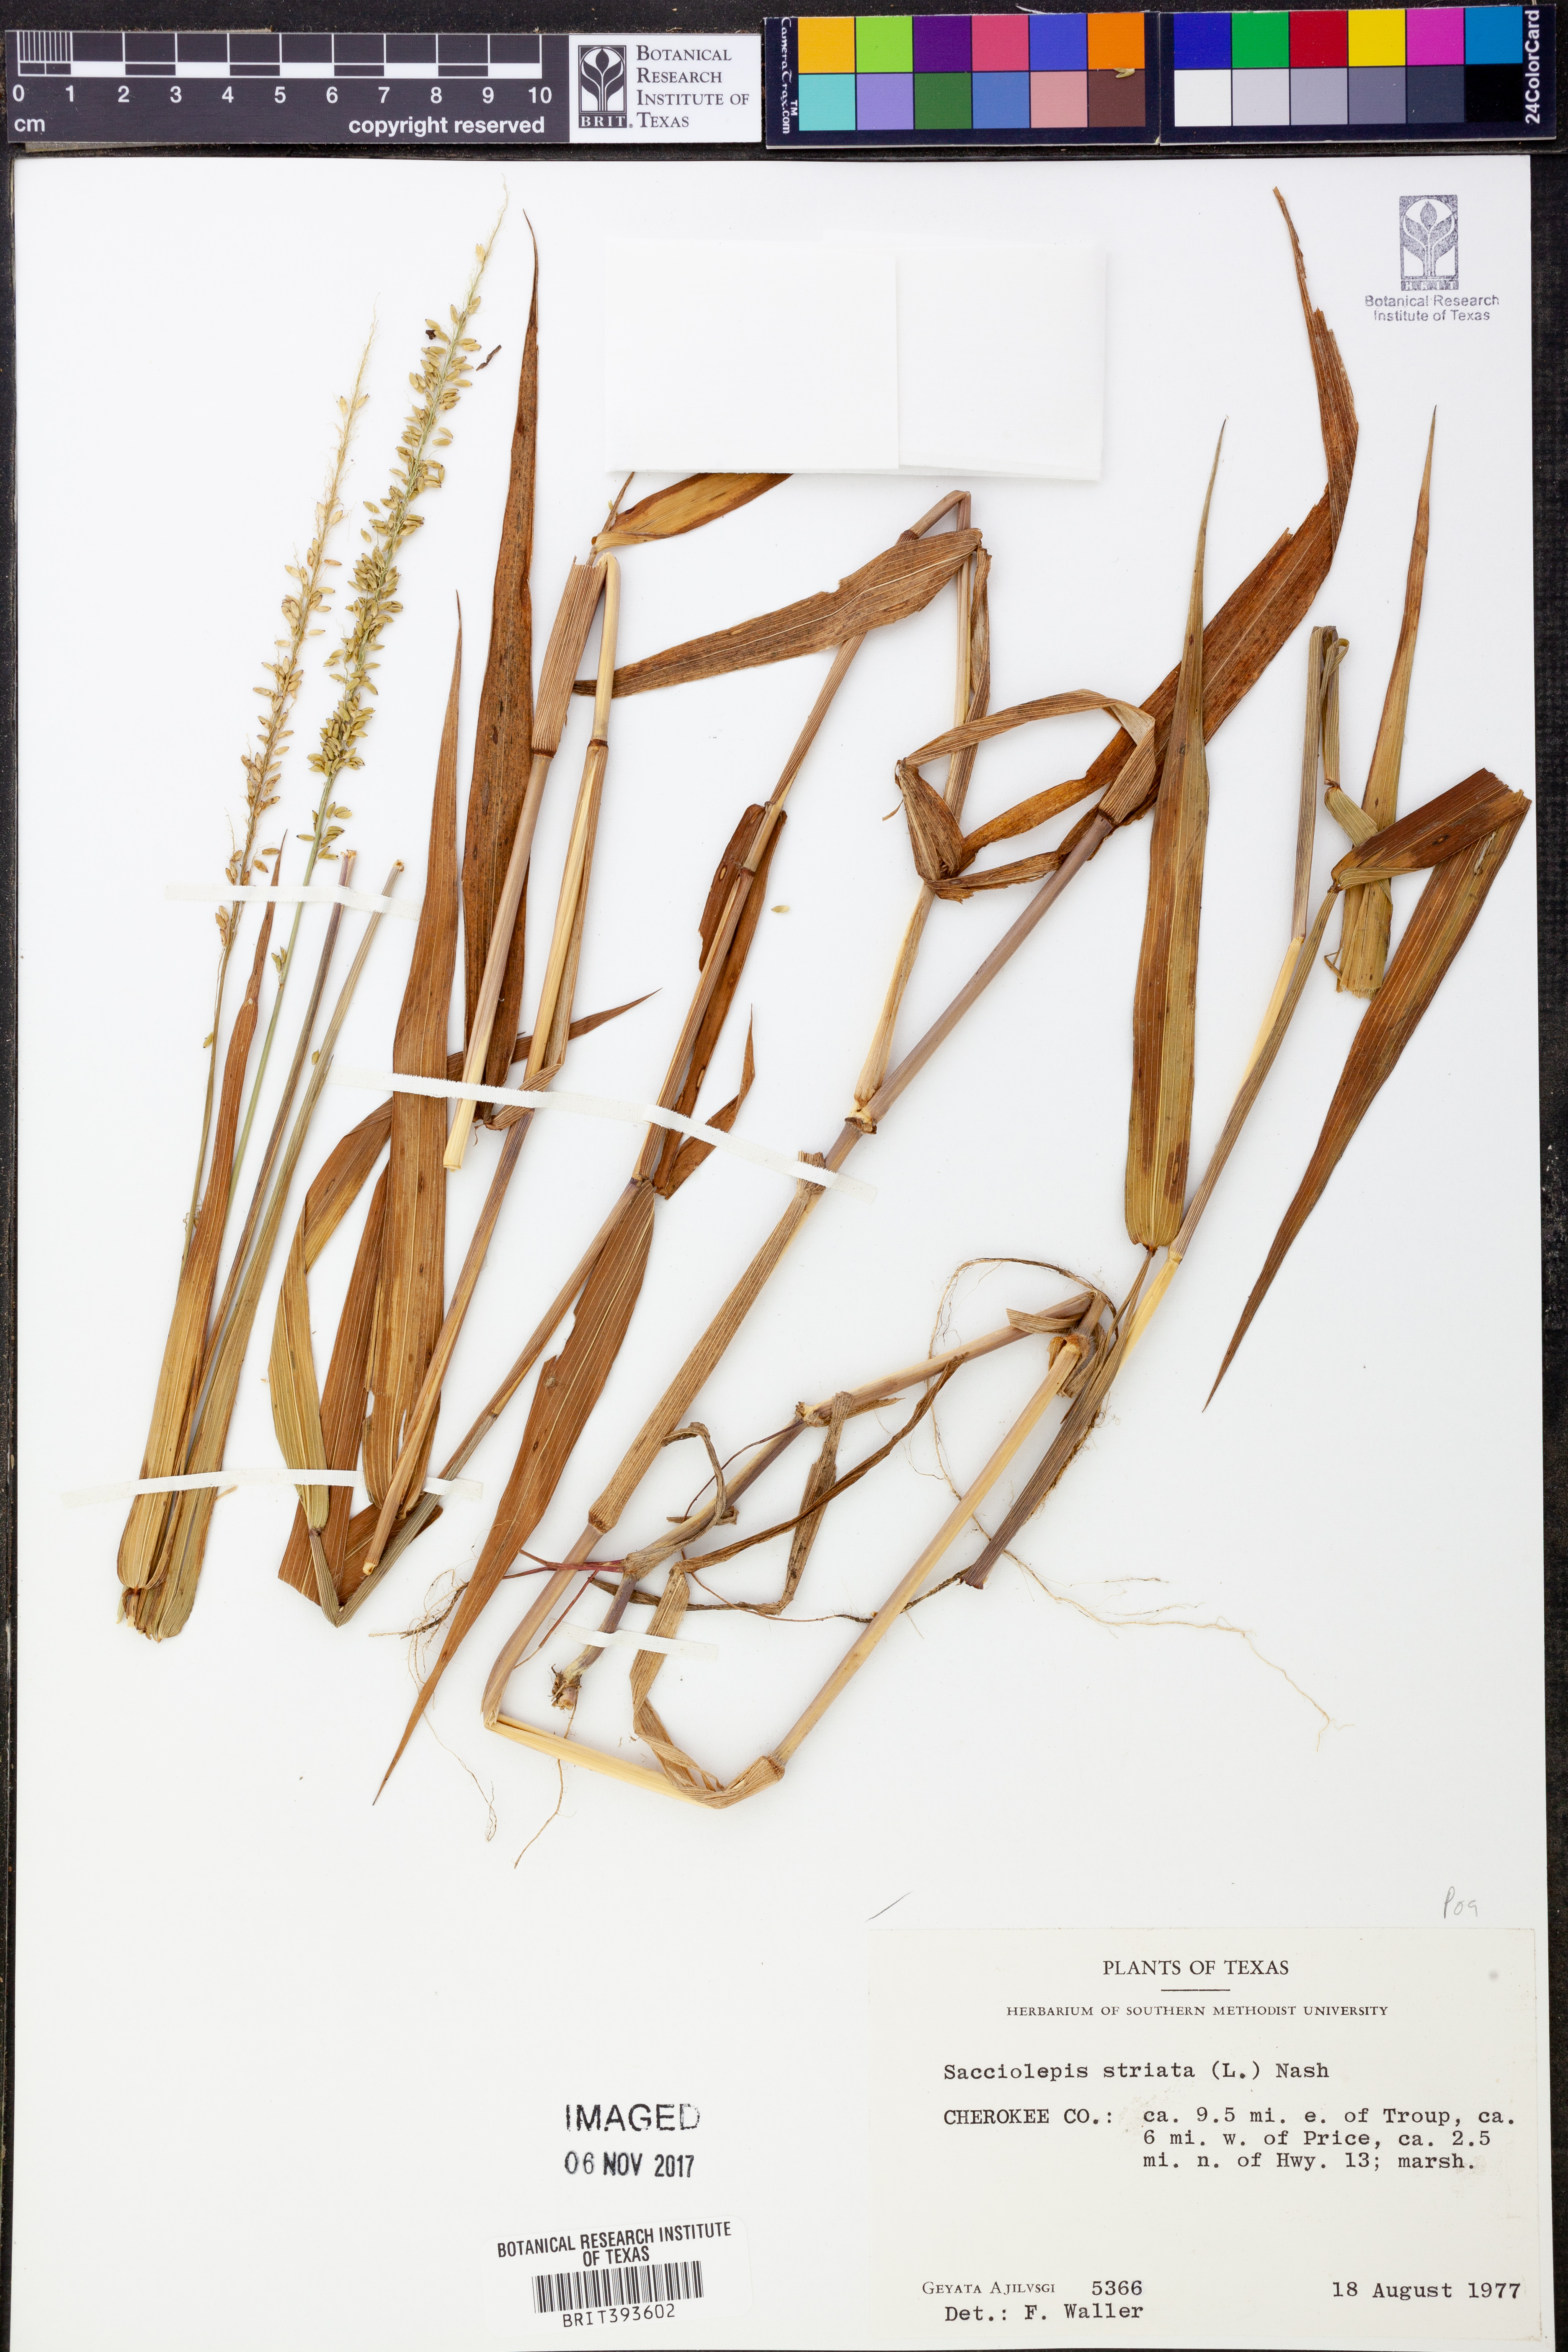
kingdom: Plantae
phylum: Tracheophyta
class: Liliopsida
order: Poales
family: Poaceae
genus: Sacciolepis
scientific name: Sacciolepis striata
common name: American cupscale
